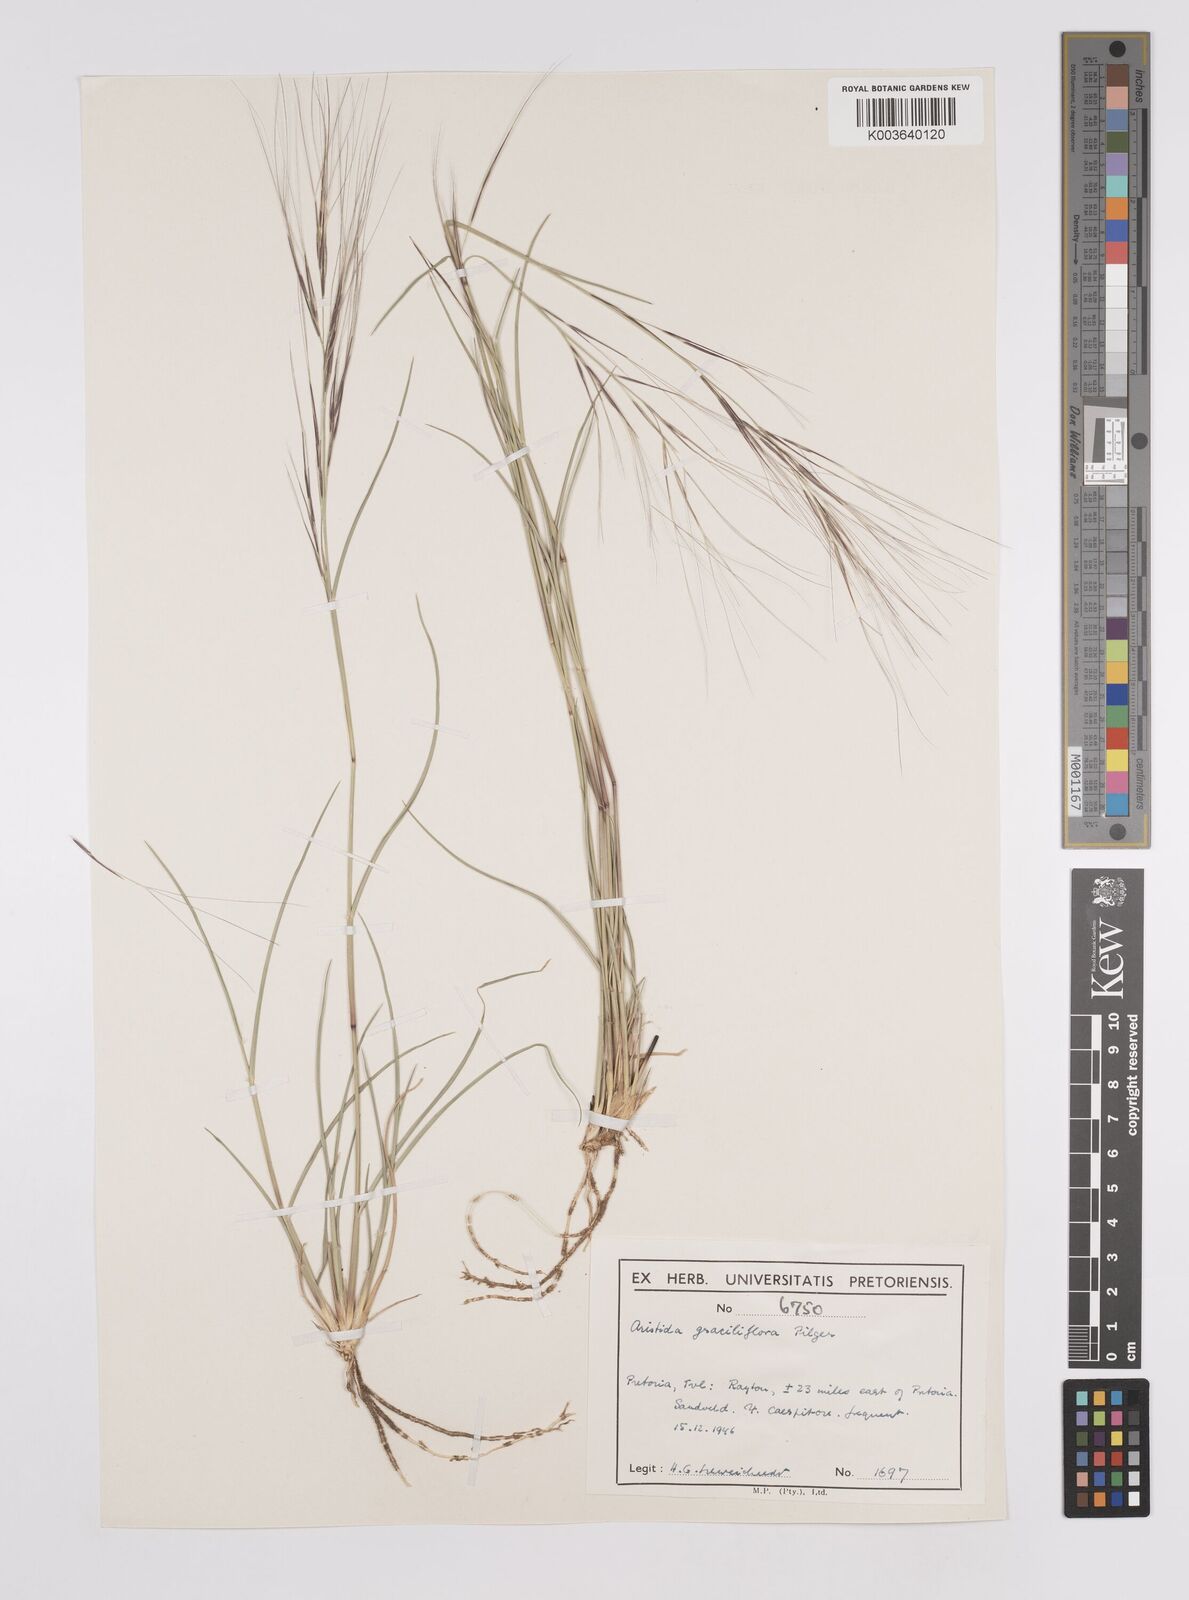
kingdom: Plantae
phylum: Tracheophyta
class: Liliopsida
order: Poales
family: Poaceae
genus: Aristida
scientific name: Aristida stipitata
